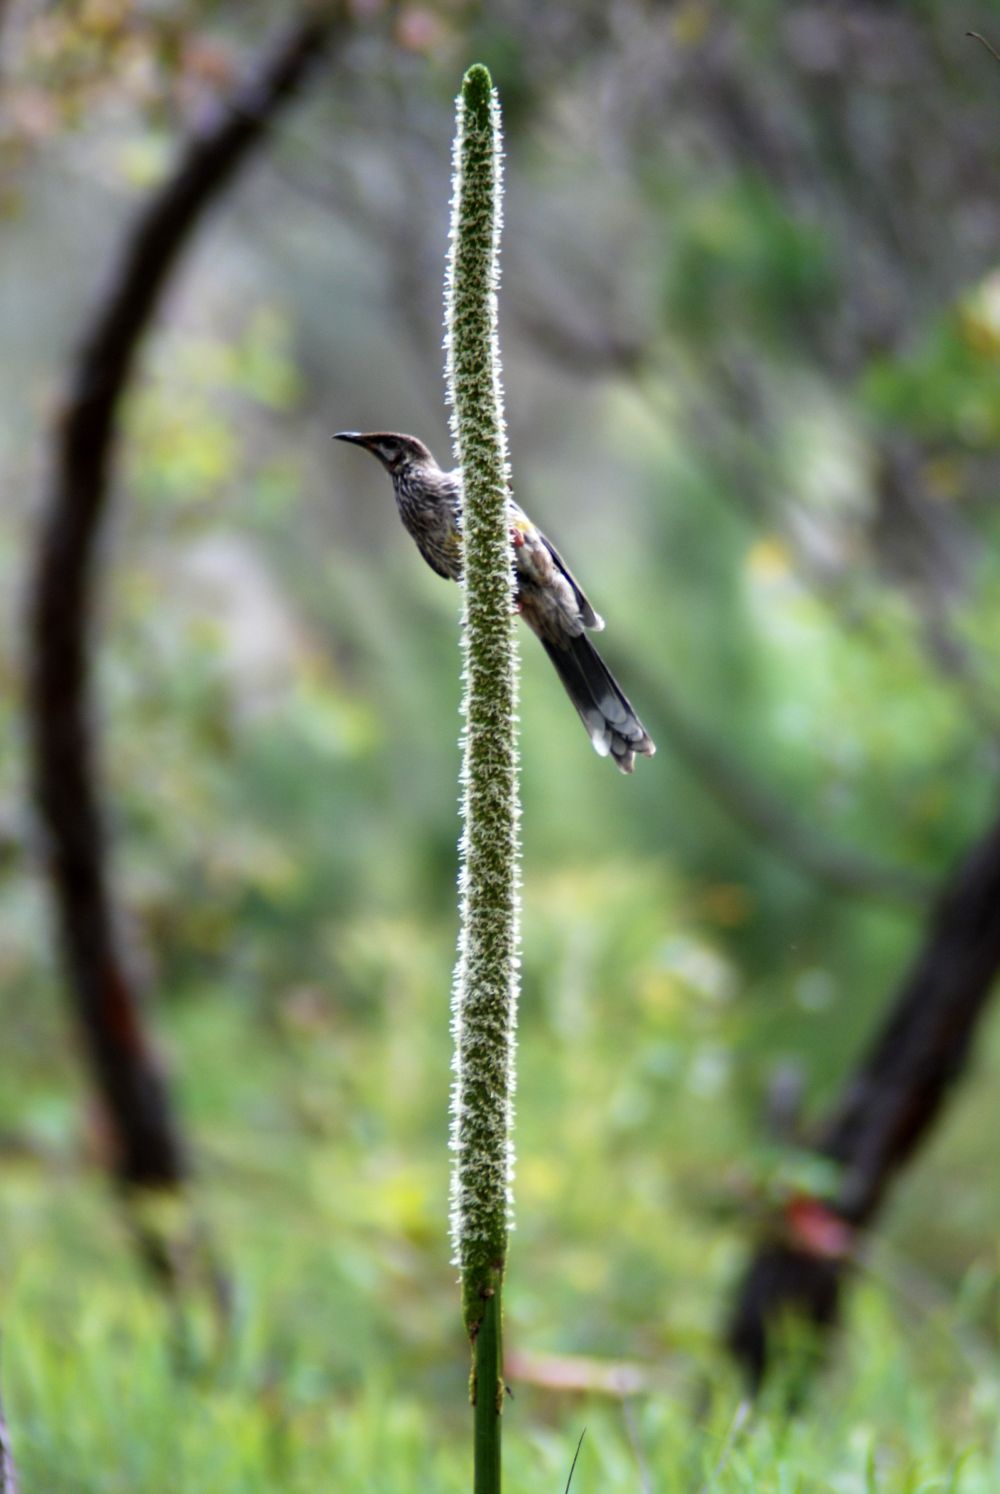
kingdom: Animalia
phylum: Chordata
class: Aves
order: Passeriformes
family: Meliphagidae
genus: Anthochaera
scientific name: Anthochaera carunculata
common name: Red wattlebird
